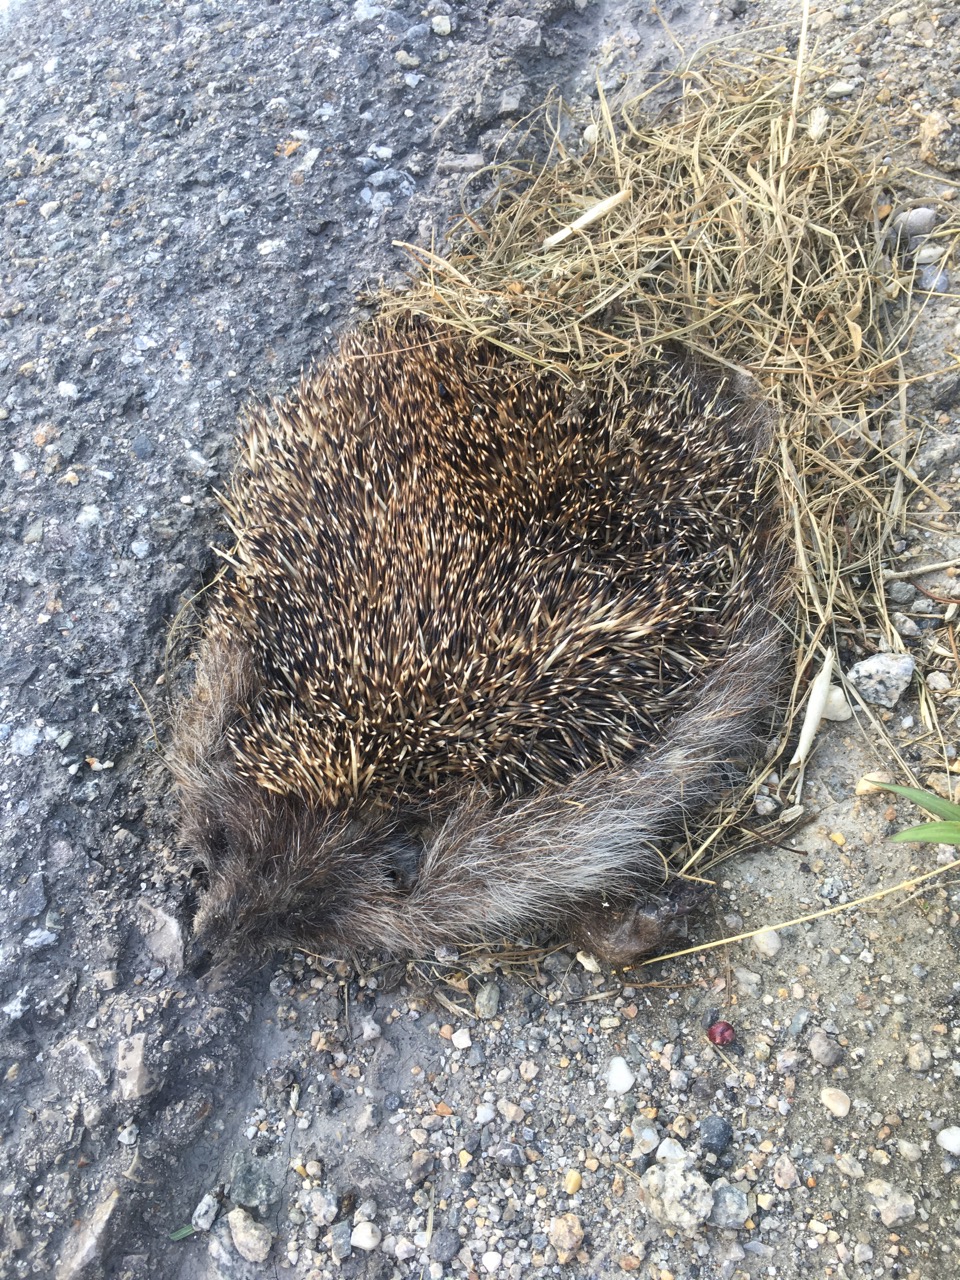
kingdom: Animalia
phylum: Chordata
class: Mammalia
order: Erinaceomorpha
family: Erinaceidae
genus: Erinaceus
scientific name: Erinaceus
